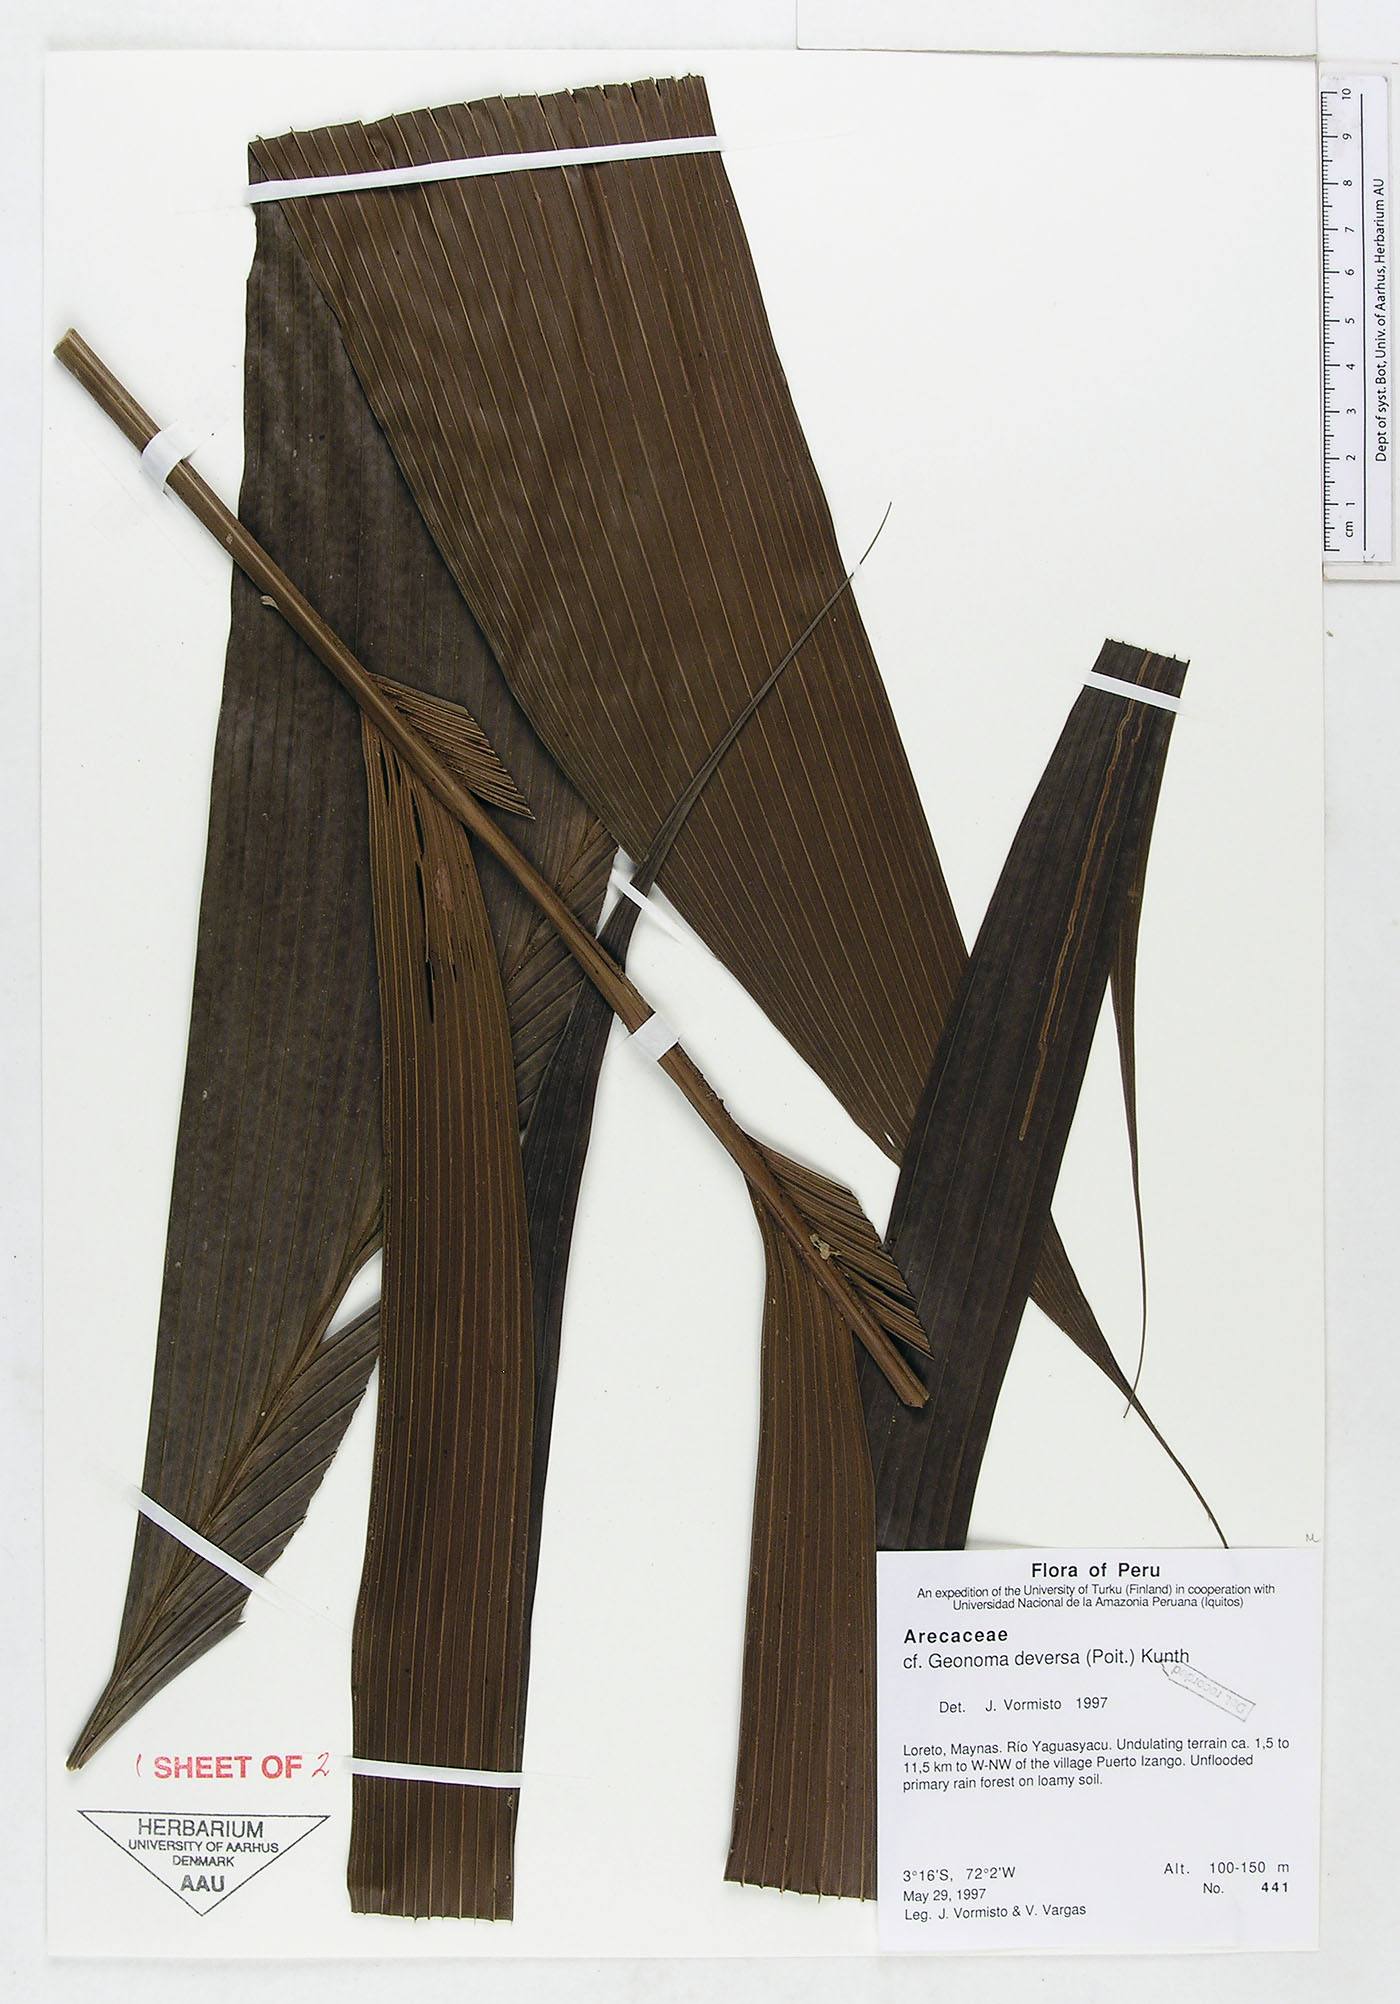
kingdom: Plantae
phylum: Tracheophyta
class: Liliopsida
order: Arecales
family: Arecaceae
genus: Geonoma
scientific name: Geonoma deversa
